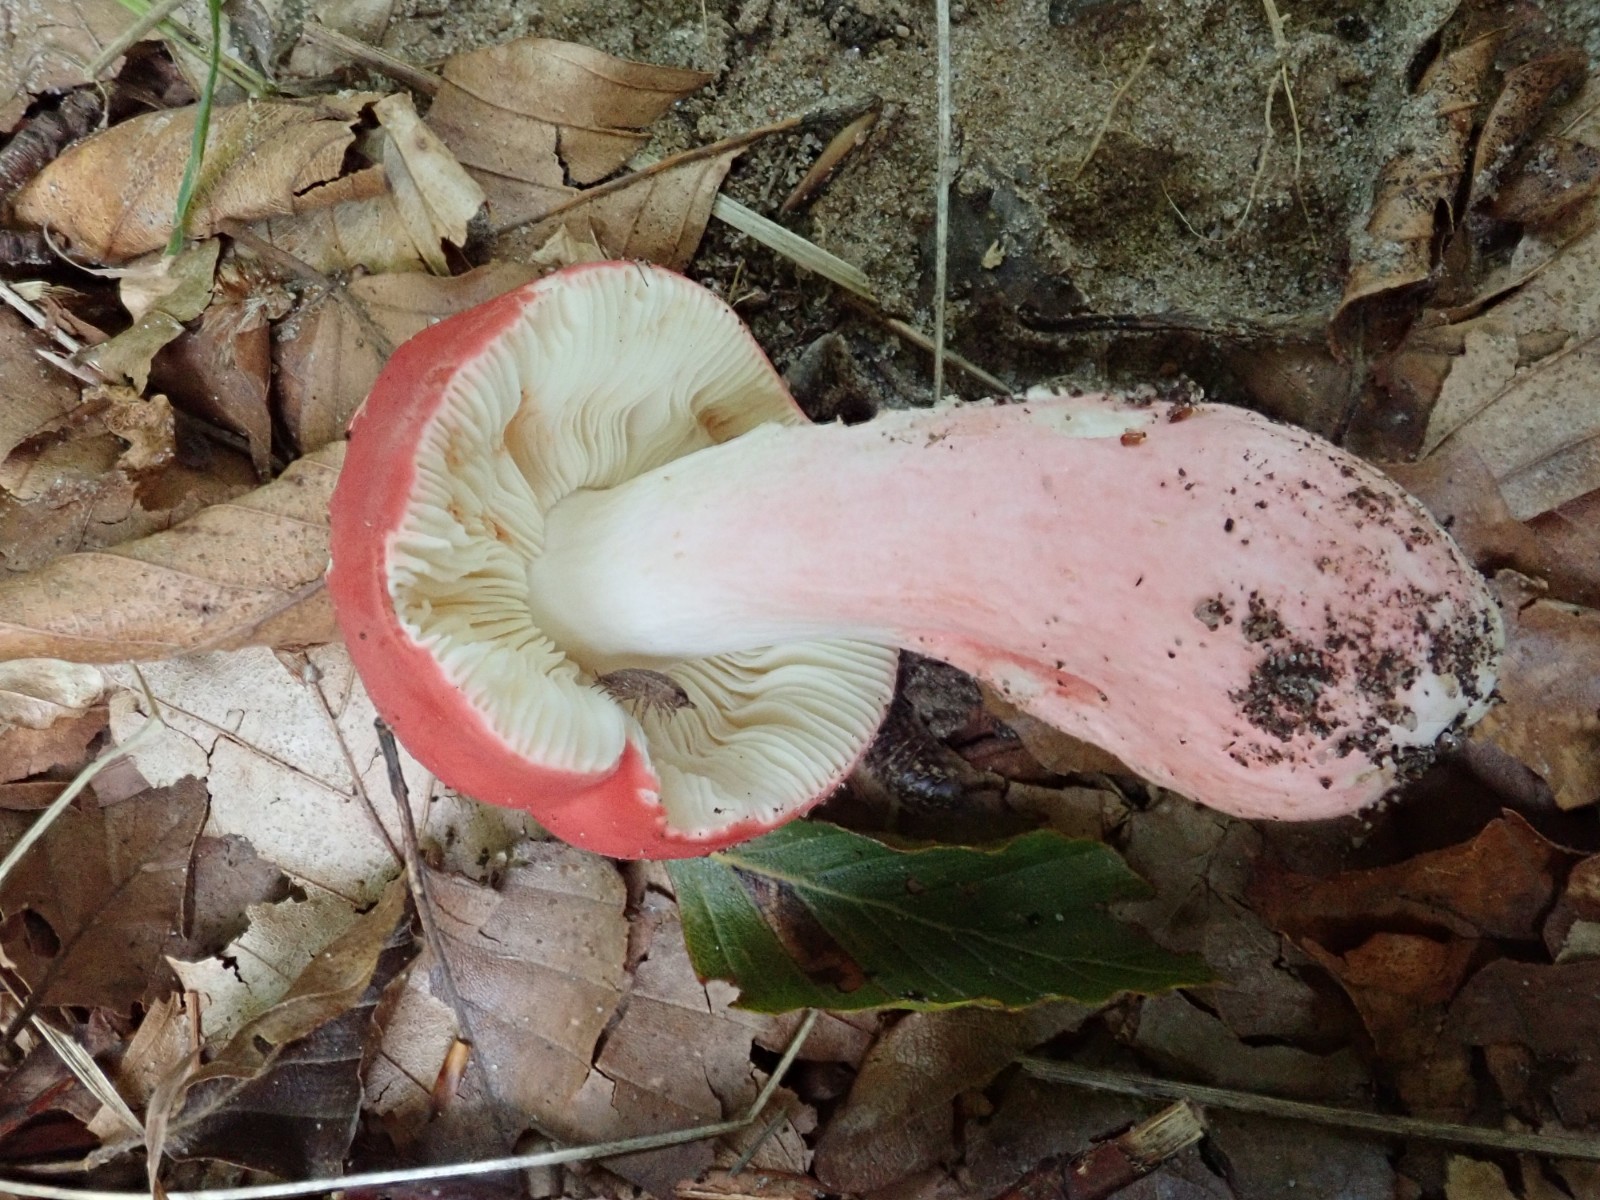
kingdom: Fungi
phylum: Basidiomycota
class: Agaricomycetes
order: Russulales
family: Russulaceae
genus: Russula
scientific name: Russula rosea
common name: fastkødet skørhat
